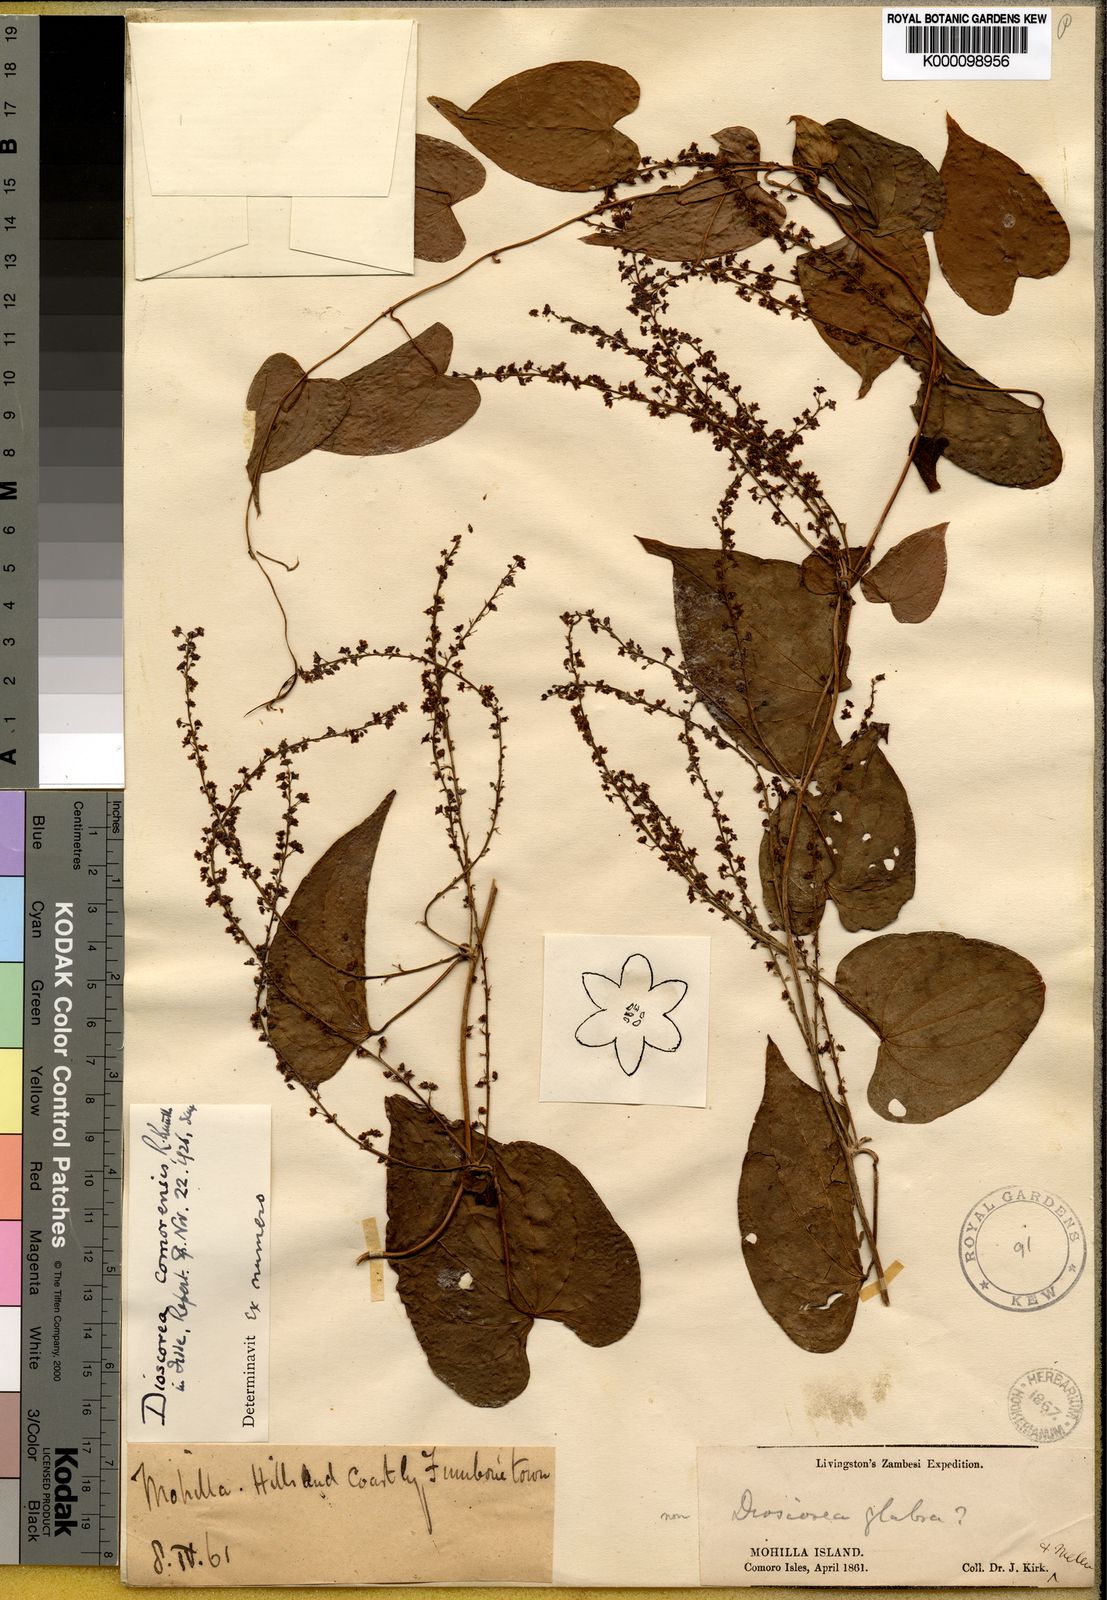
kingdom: Plantae
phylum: Tracheophyta
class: Liliopsida
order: Dioscoreales
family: Dioscoreaceae
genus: Dioscorea
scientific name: Dioscorea comorensis
